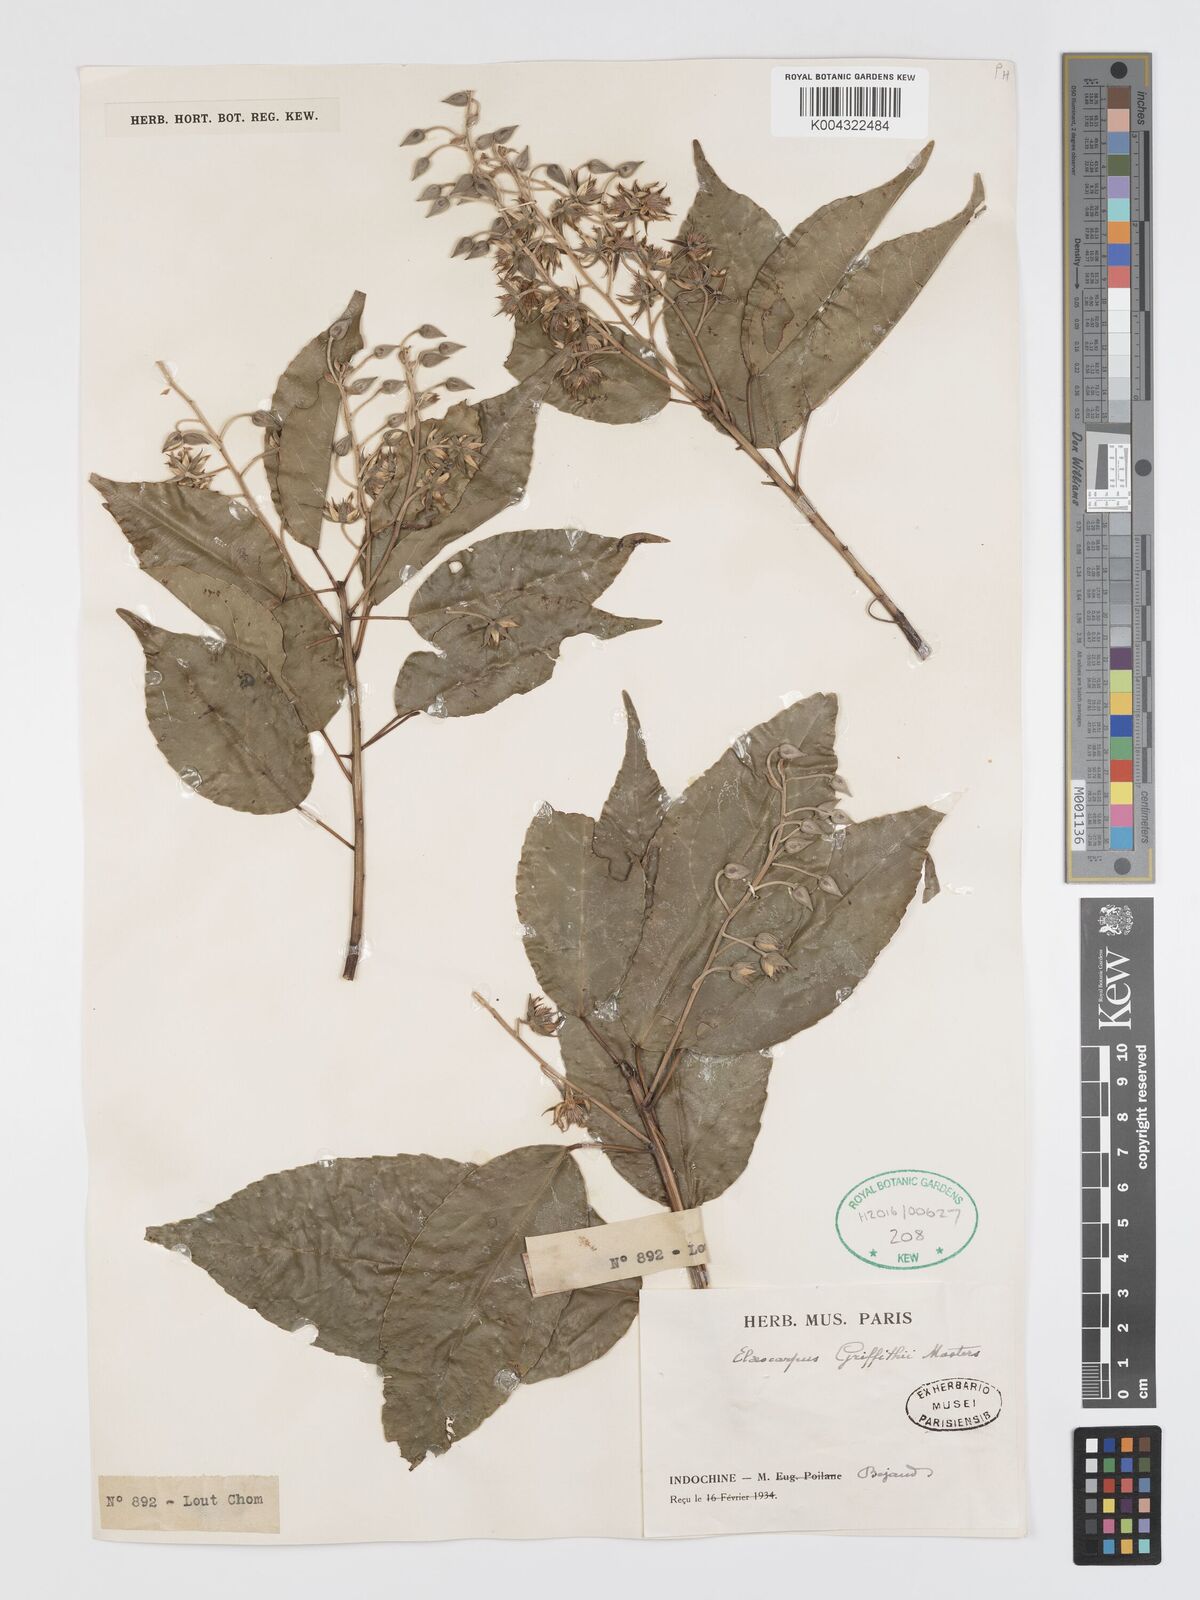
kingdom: Plantae
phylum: Tracheophyta
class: Magnoliopsida
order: Oxalidales
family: Elaeocarpaceae
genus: Elaeocarpus
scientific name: Elaeocarpus griffithii
